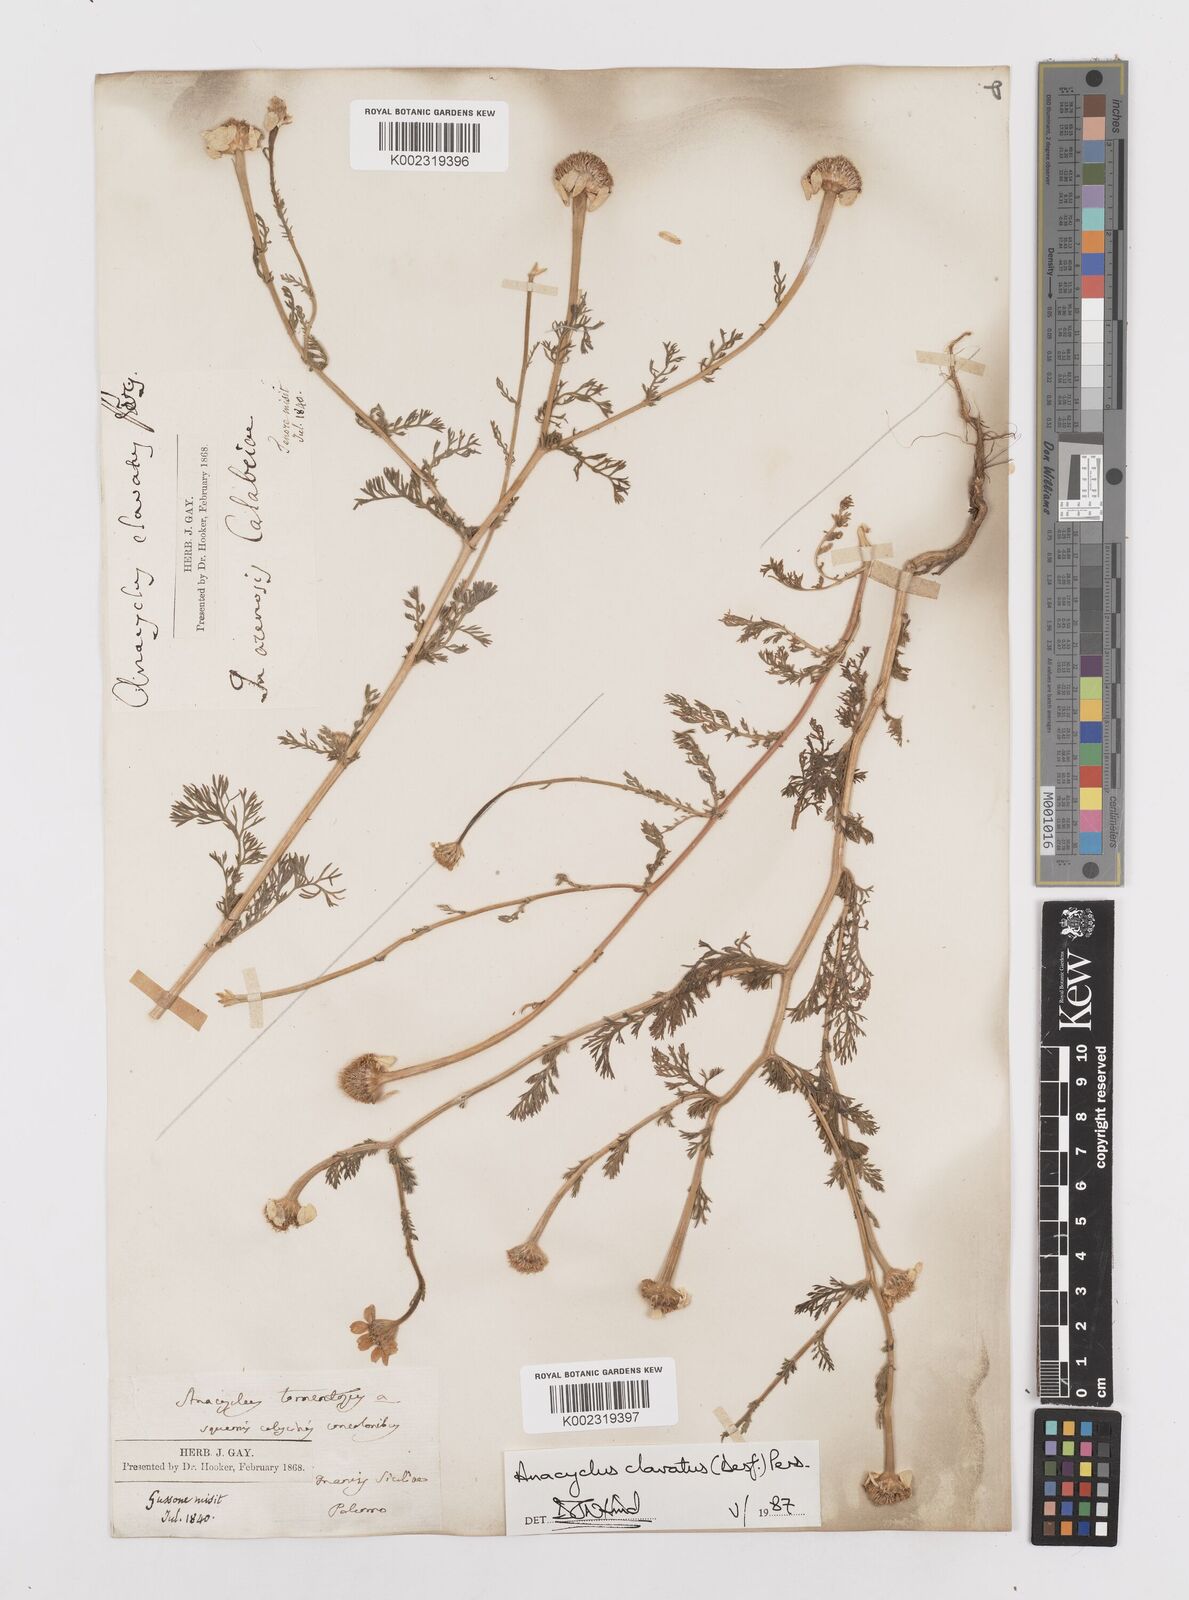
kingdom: Plantae
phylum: Tracheophyta
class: Magnoliopsida
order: Asterales
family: Asteraceae
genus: Anacyclus
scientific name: Anacyclus clavatus
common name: Whitebuttons
